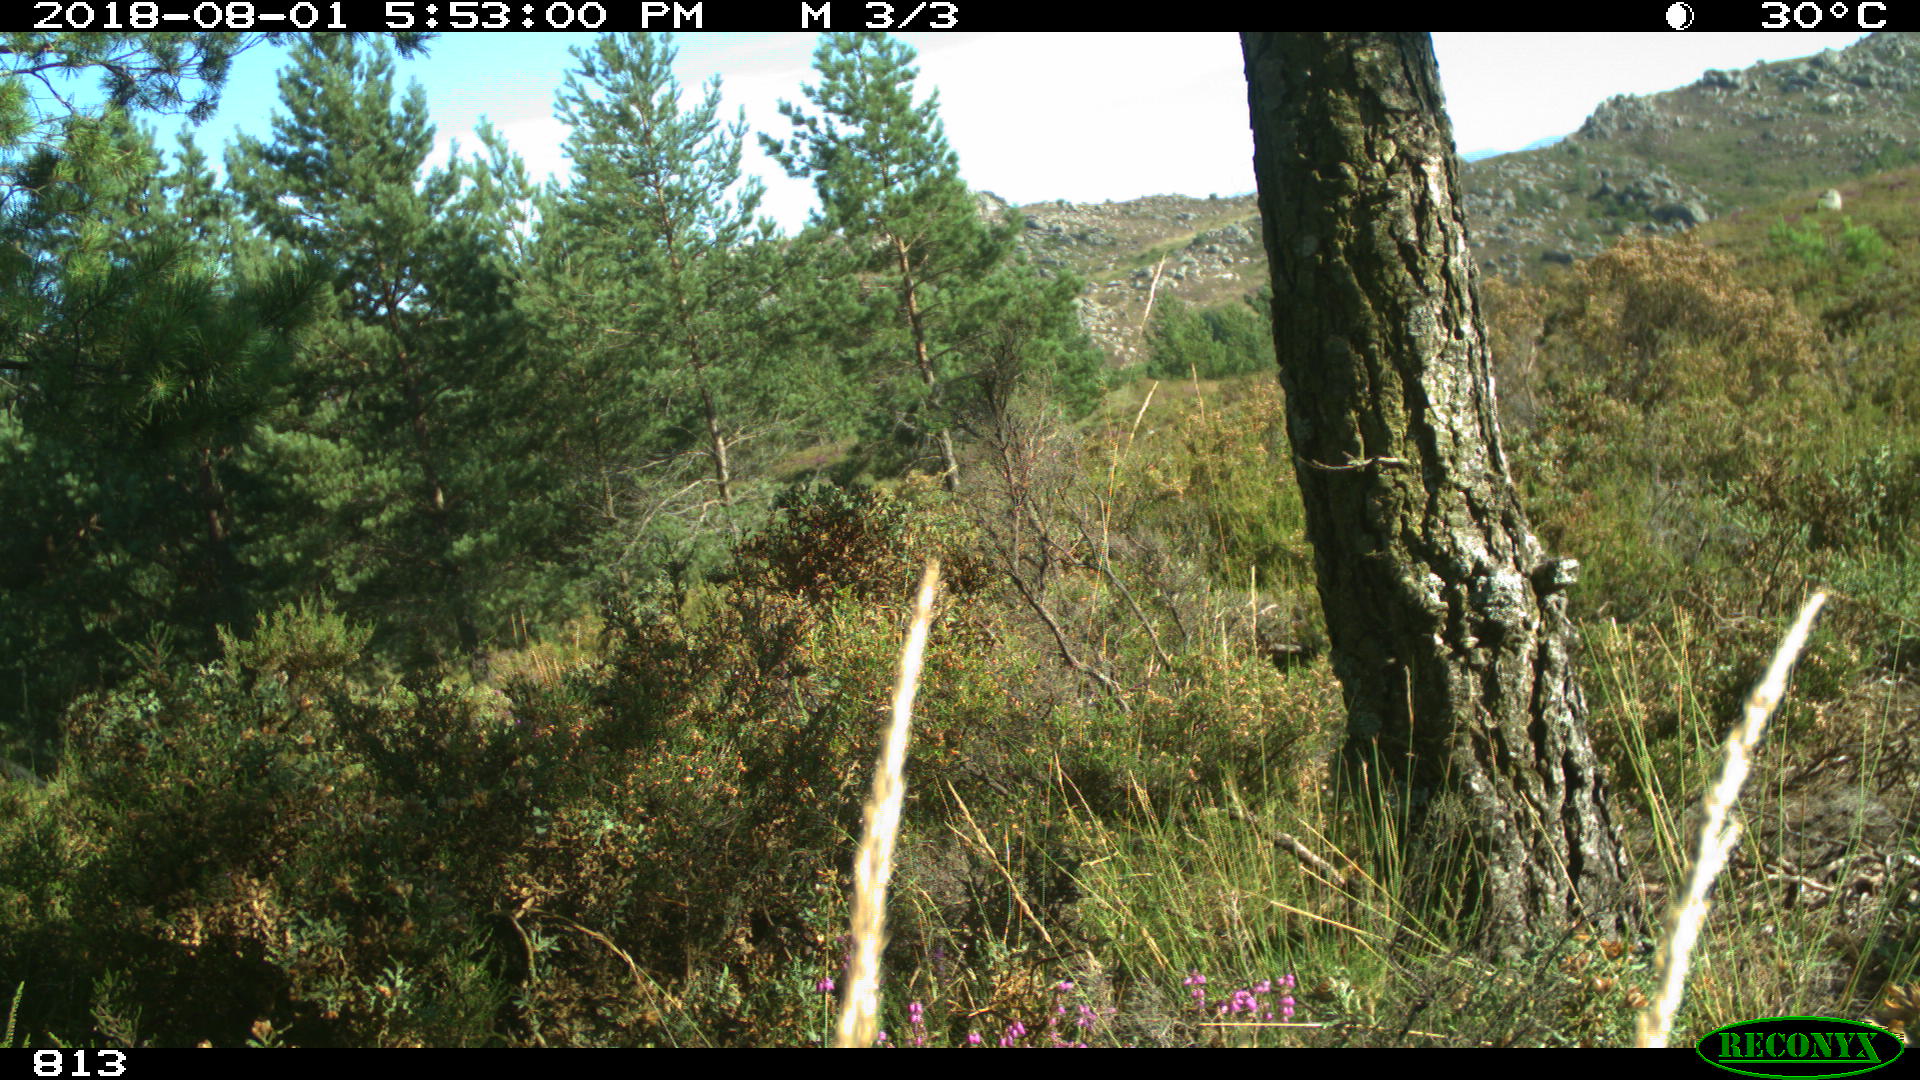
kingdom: Animalia
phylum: Chordata
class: Mammalia
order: Perissodactyla
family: Equidae
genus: Equus
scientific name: Equus caballus
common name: Horse
